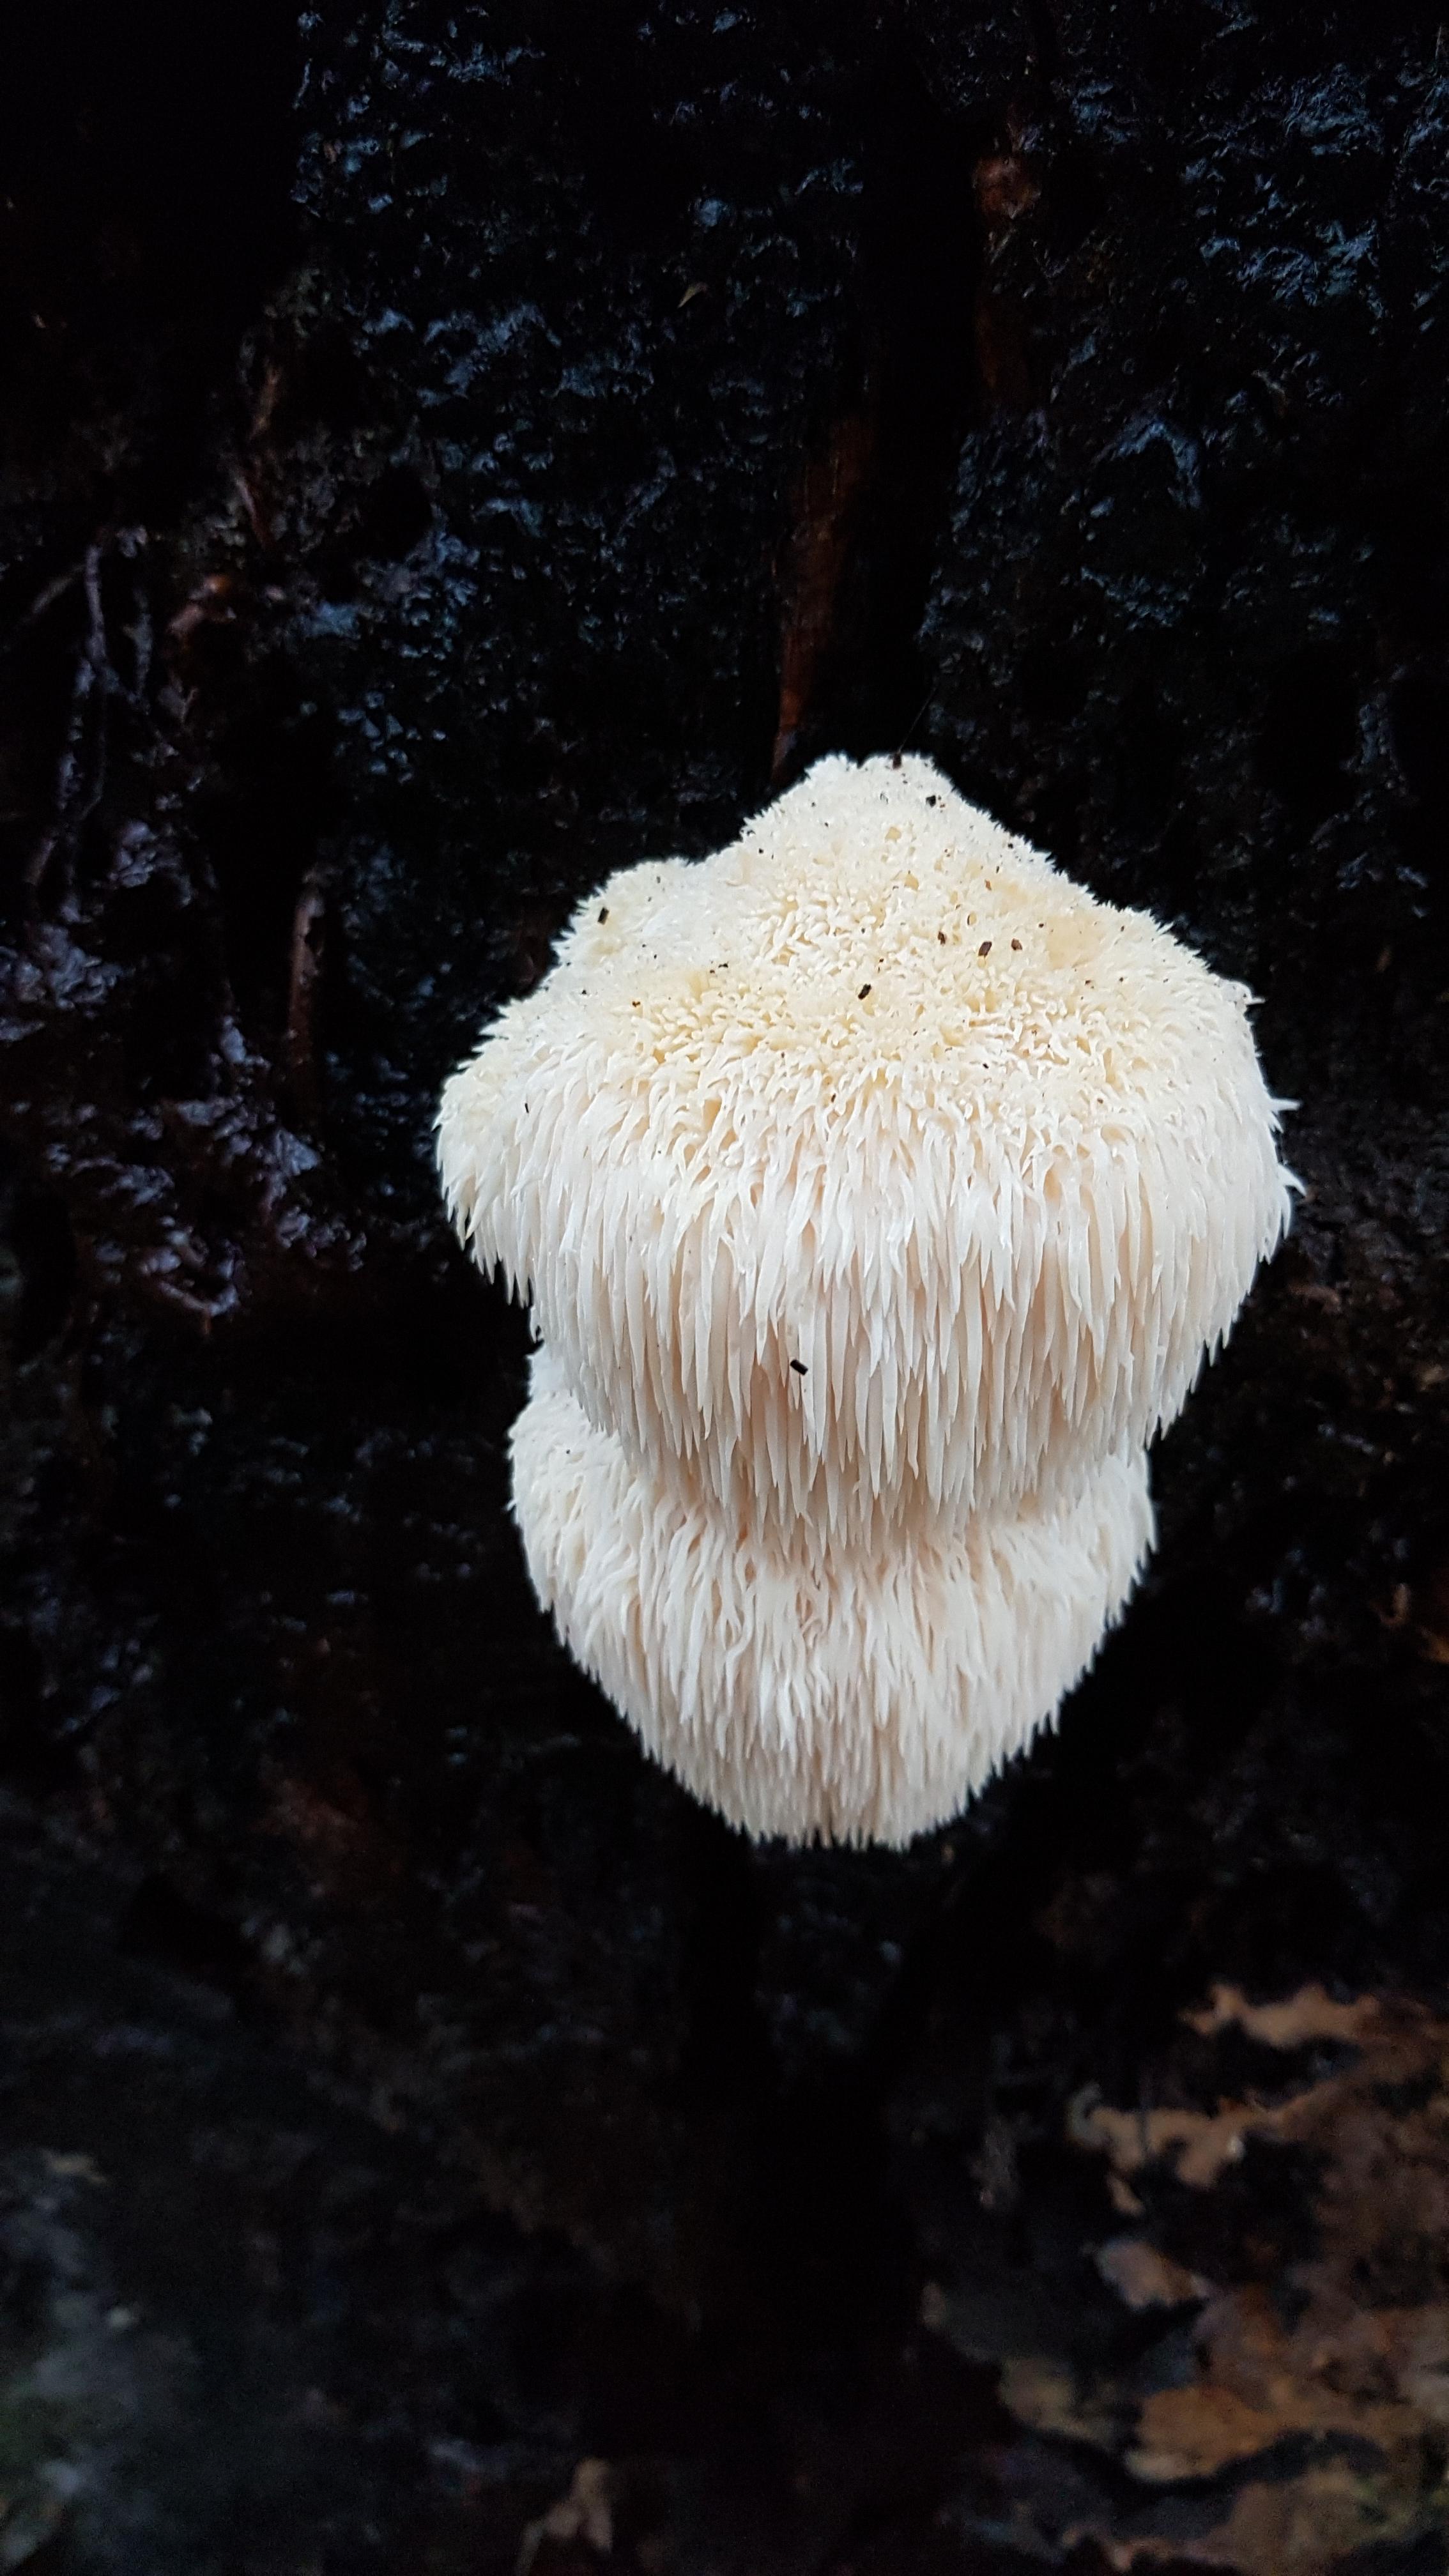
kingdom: Fungi
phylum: Basidiomycota
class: Agaricomycetes
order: Russulales
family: Hericiaceae
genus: Hericium
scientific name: Hericium erinaceus
